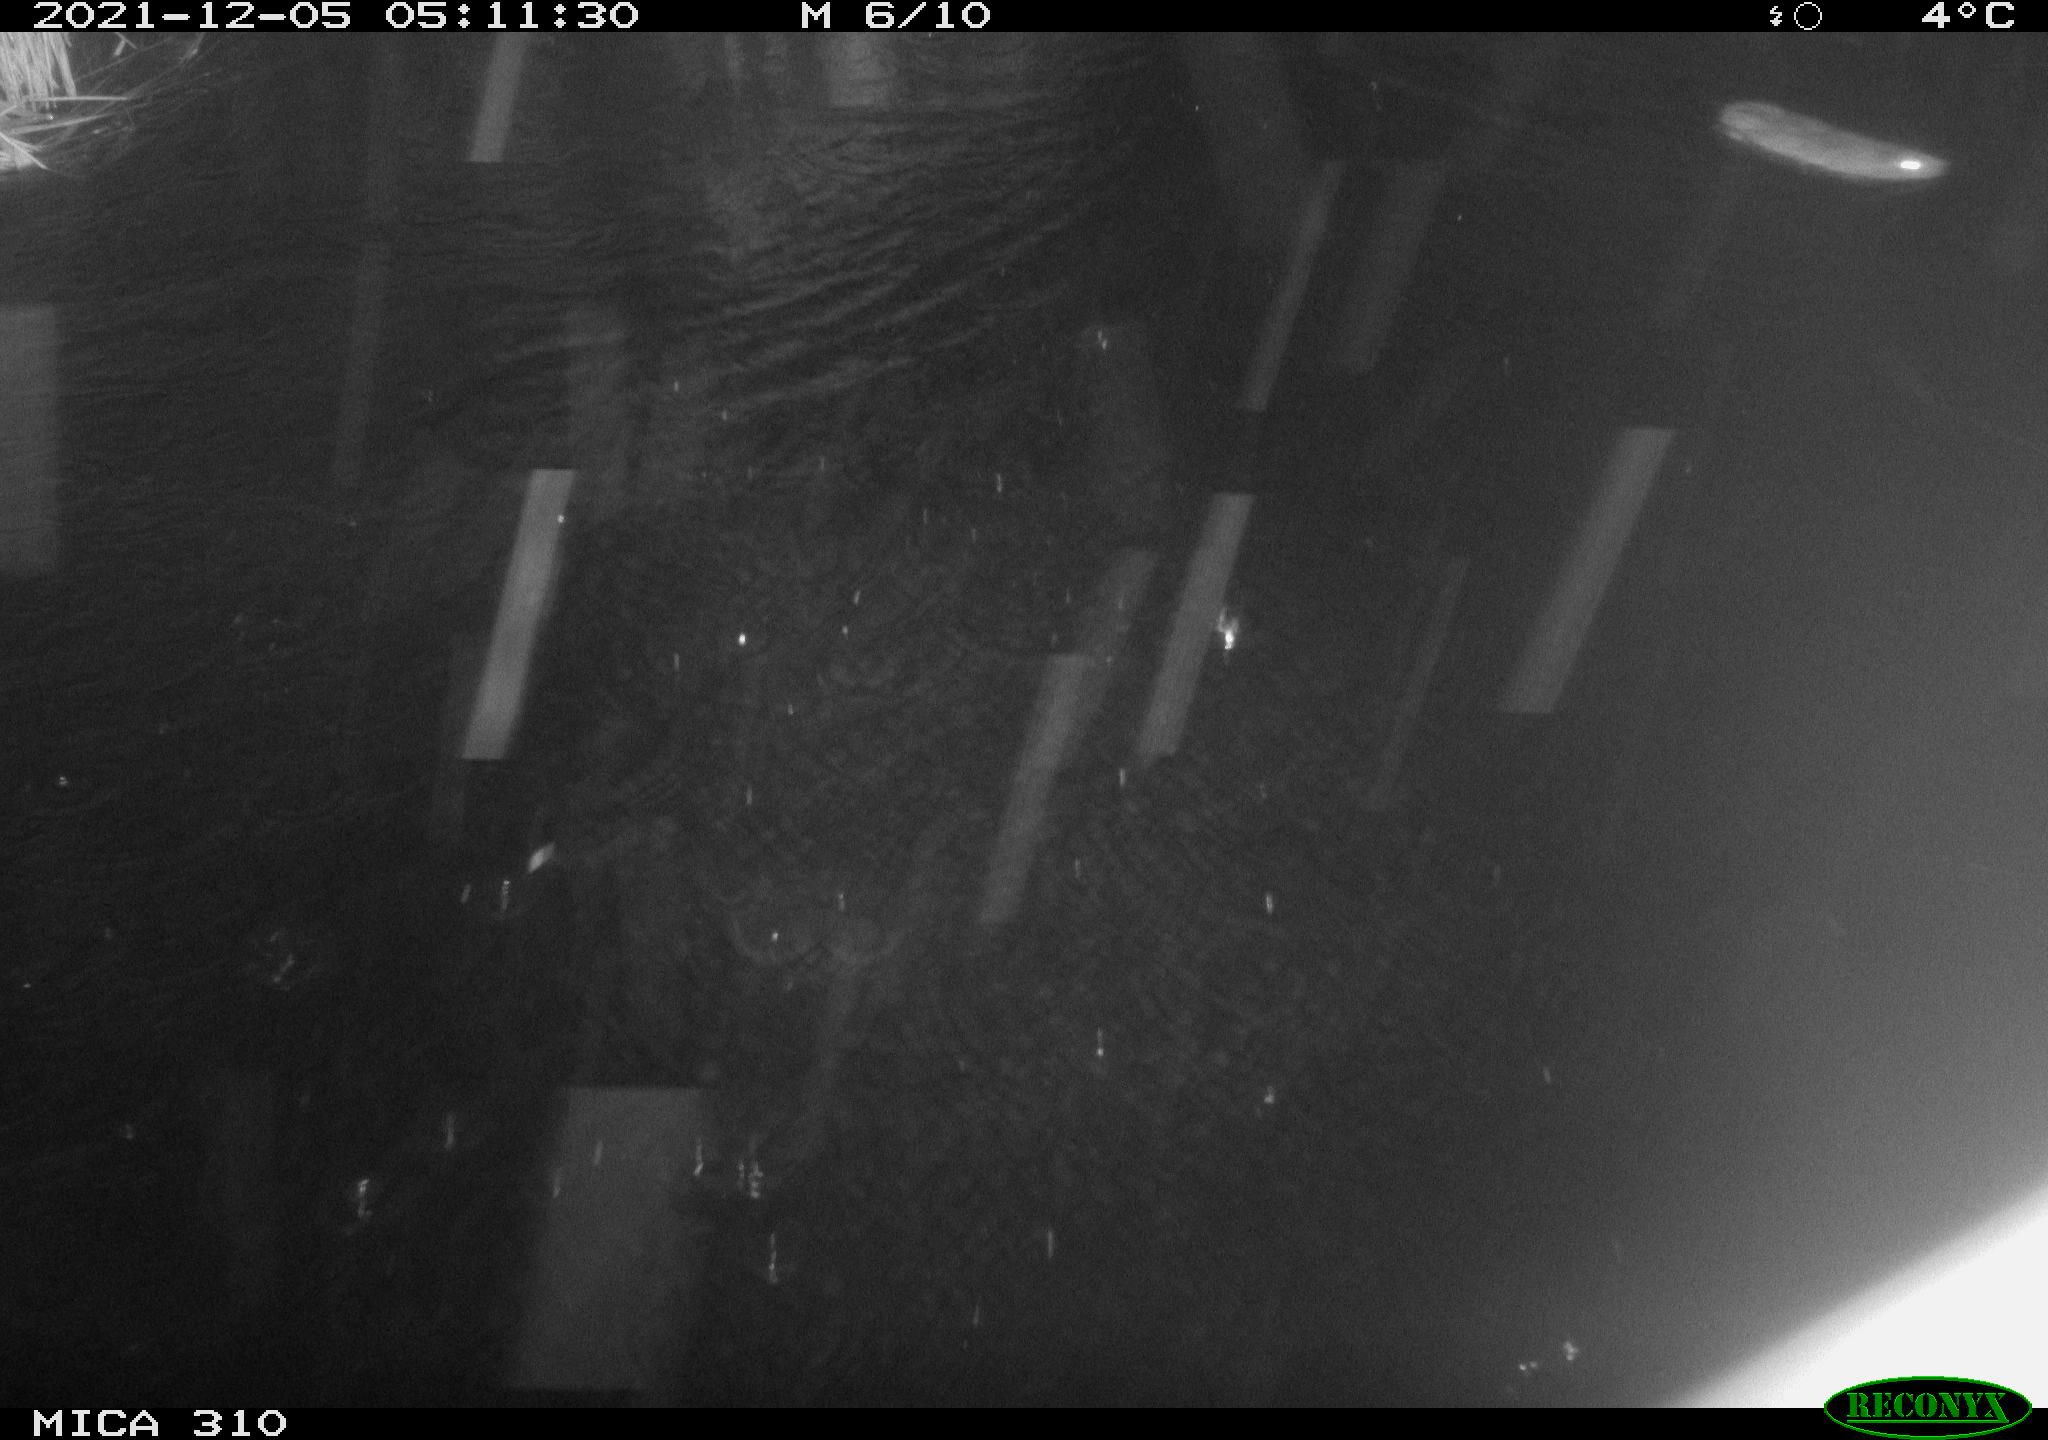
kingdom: Animalia
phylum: Chordata
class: Mammalia
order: Rodentia
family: Muridae
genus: Rattus
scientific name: Rattus norvegicus
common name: Brown rat
